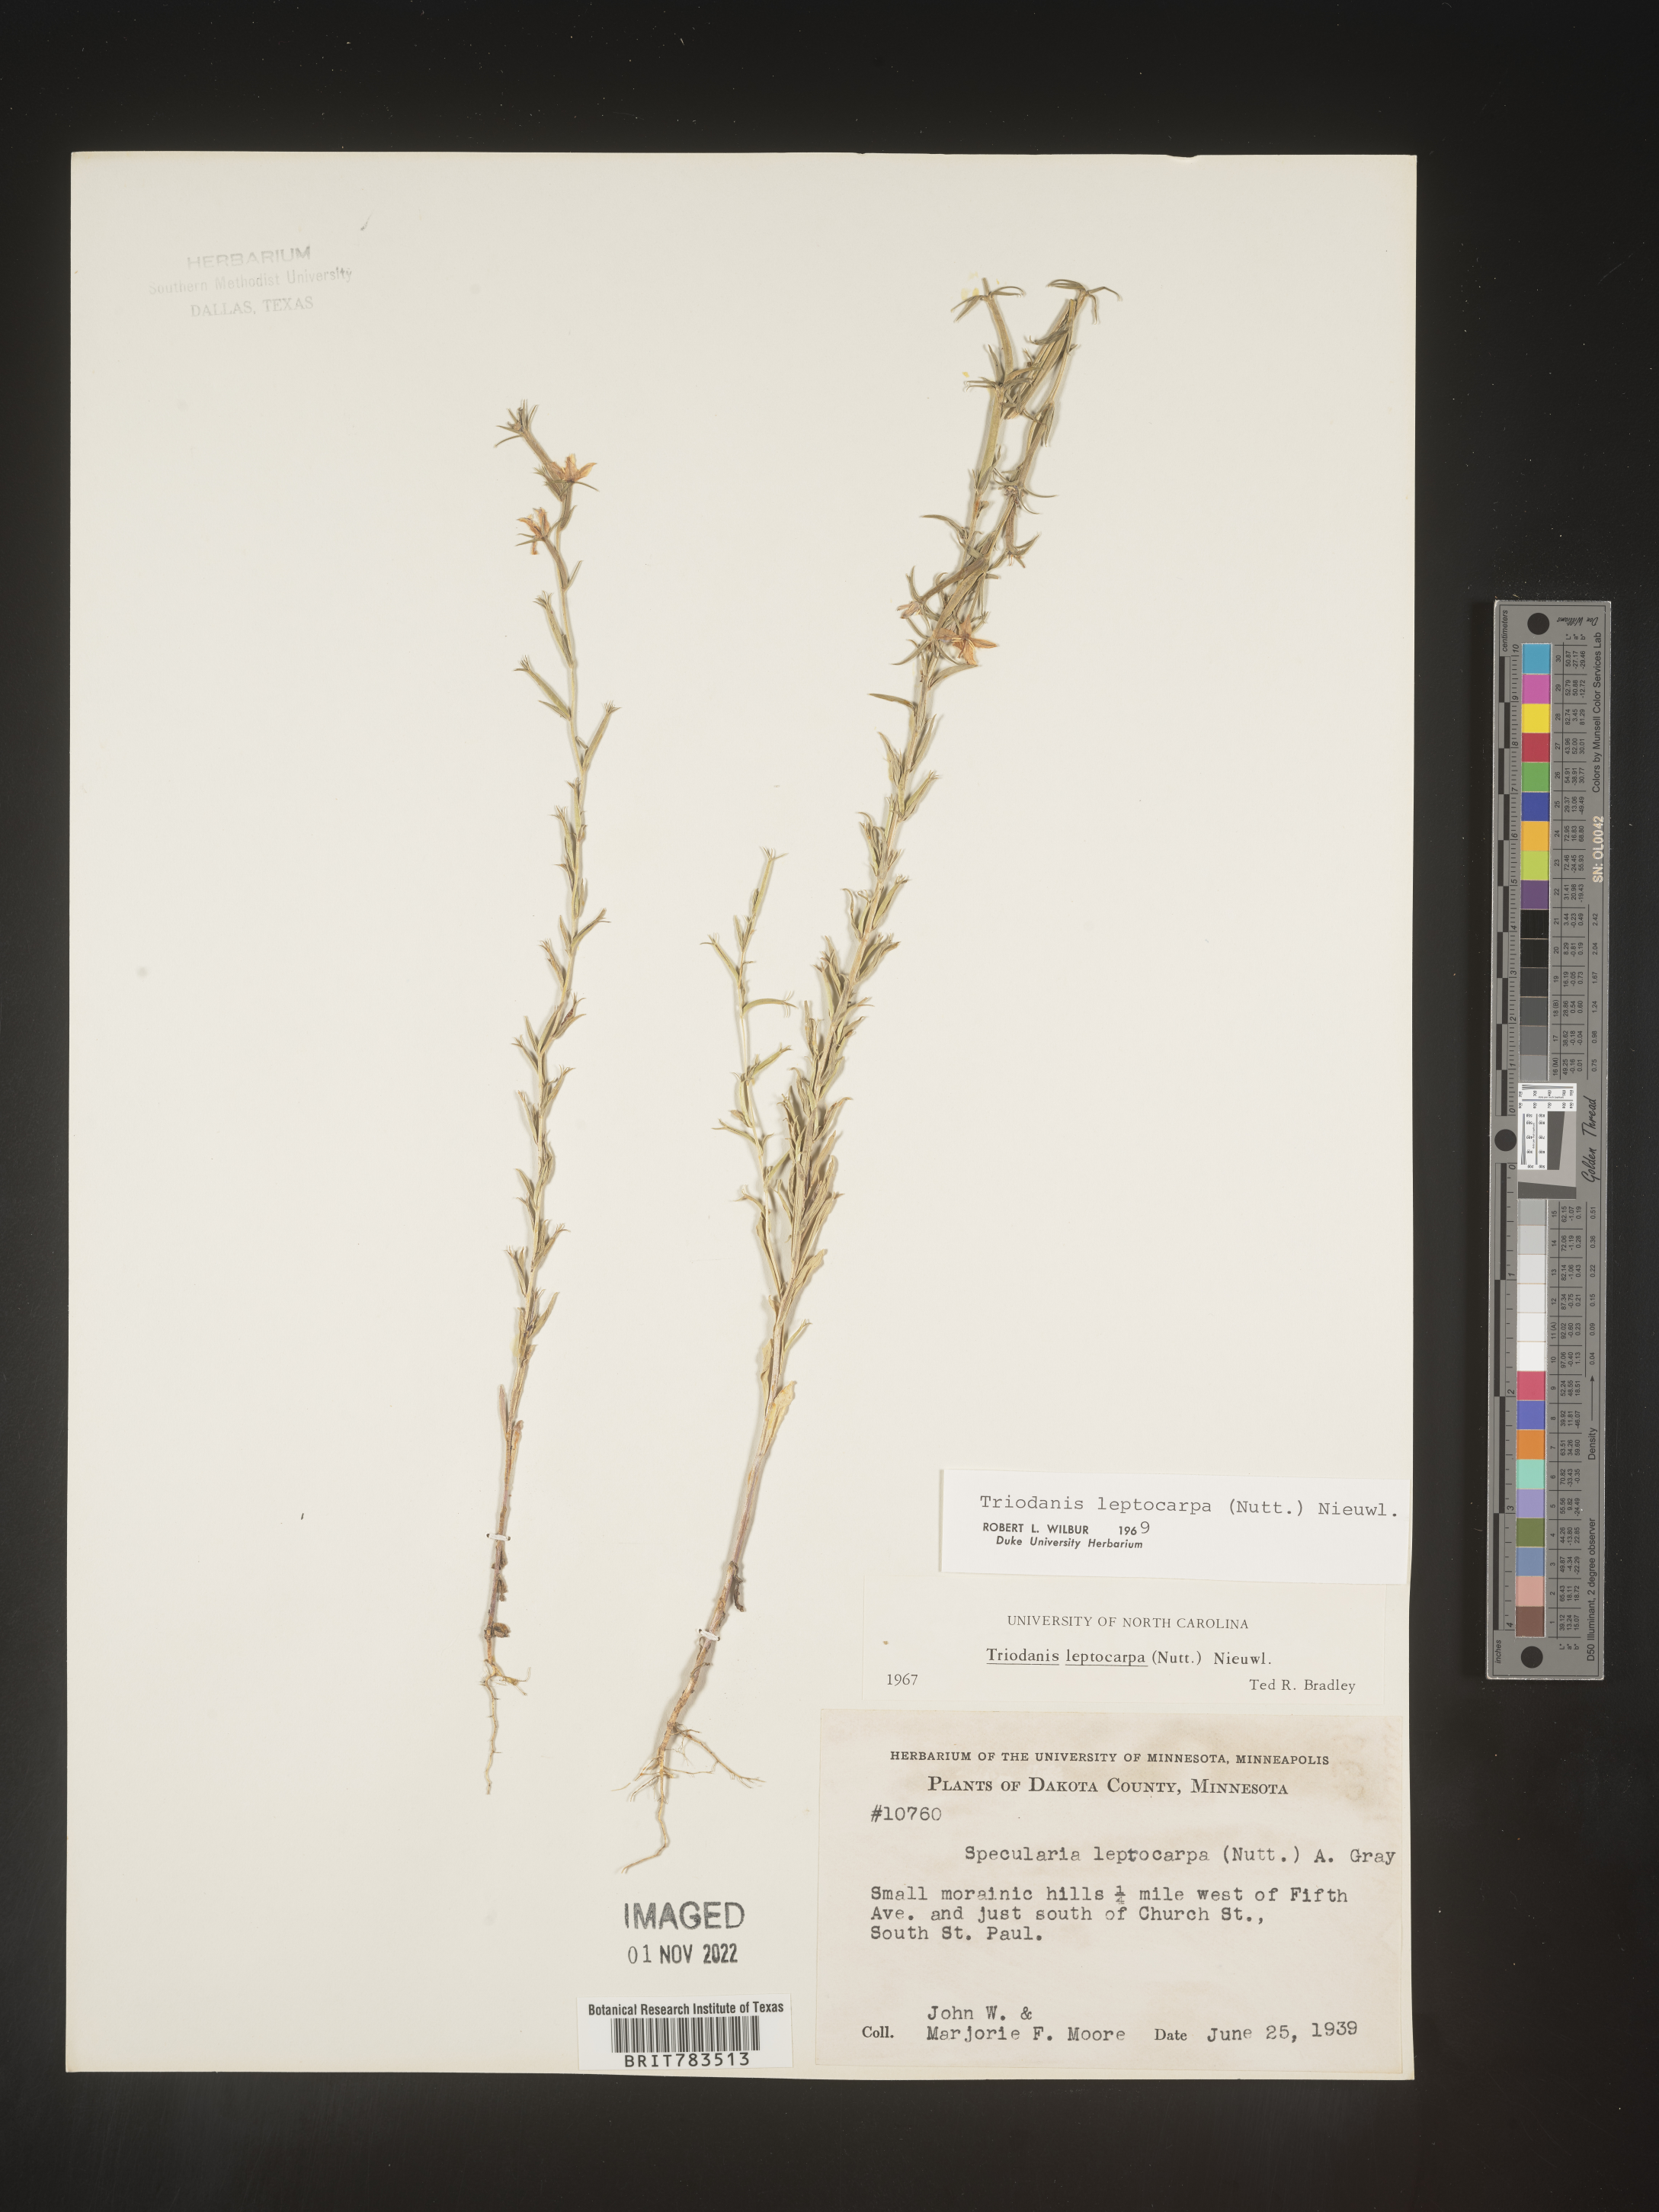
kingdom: Plantae
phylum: Tracheophyta
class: Magnoliopsida
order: Asterales
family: Campanulaceae
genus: Triodanis
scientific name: Triodanis leptocarpa
